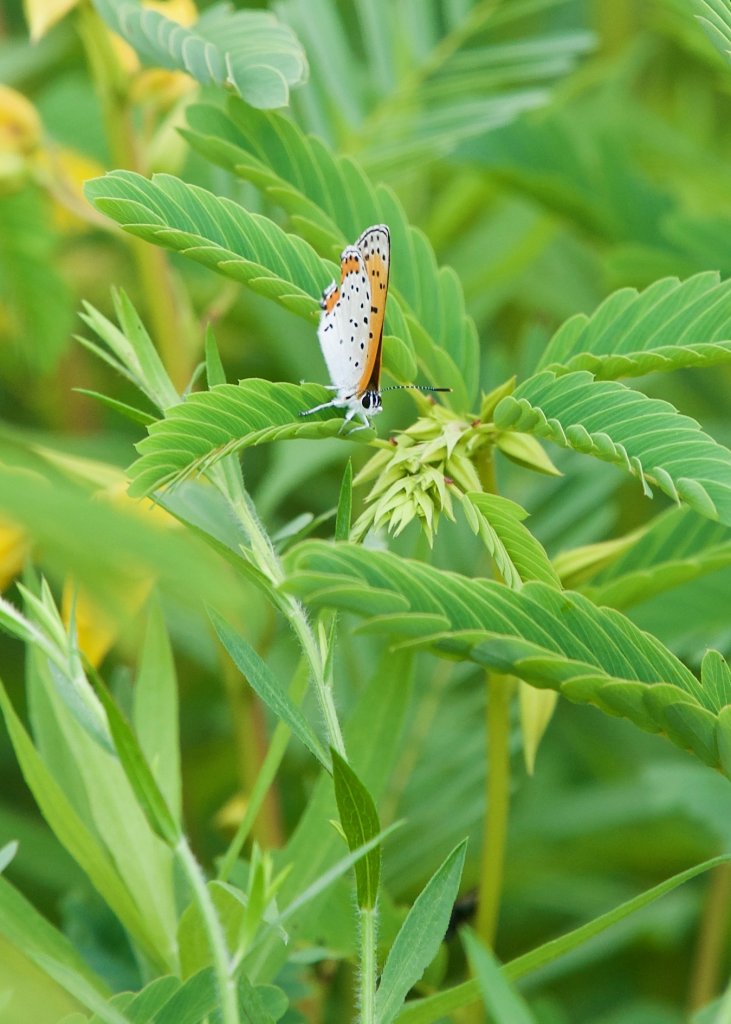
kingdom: Animalia
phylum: Arthropoda
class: Insecta
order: Lepidoptera
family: Sesiidae
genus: Sesia
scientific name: Sesia Lycaena hyllus
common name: Bronze Copper
